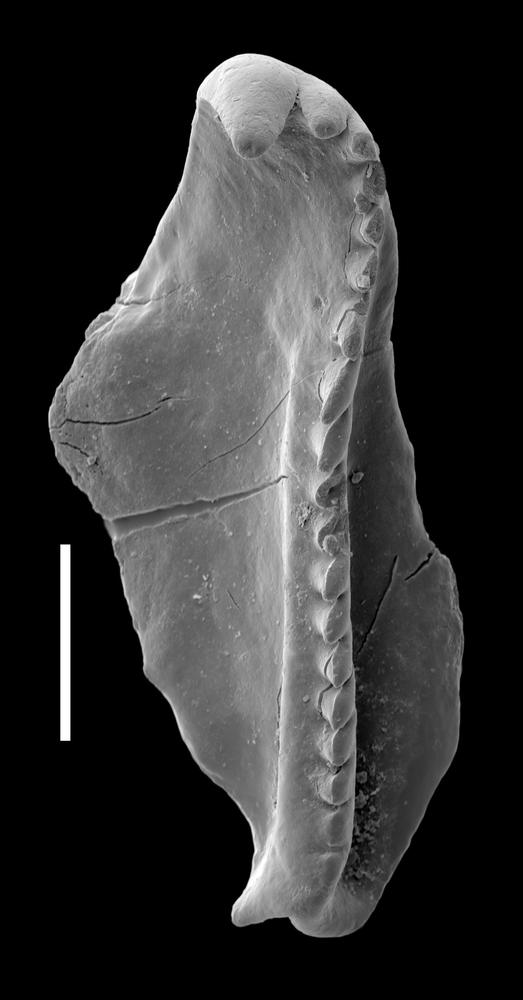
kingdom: Animalia
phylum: Annelida
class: Polychaeta
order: Eunicida
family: Polychaetaspidae
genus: Oenonites
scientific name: Oenonites jennyensis
